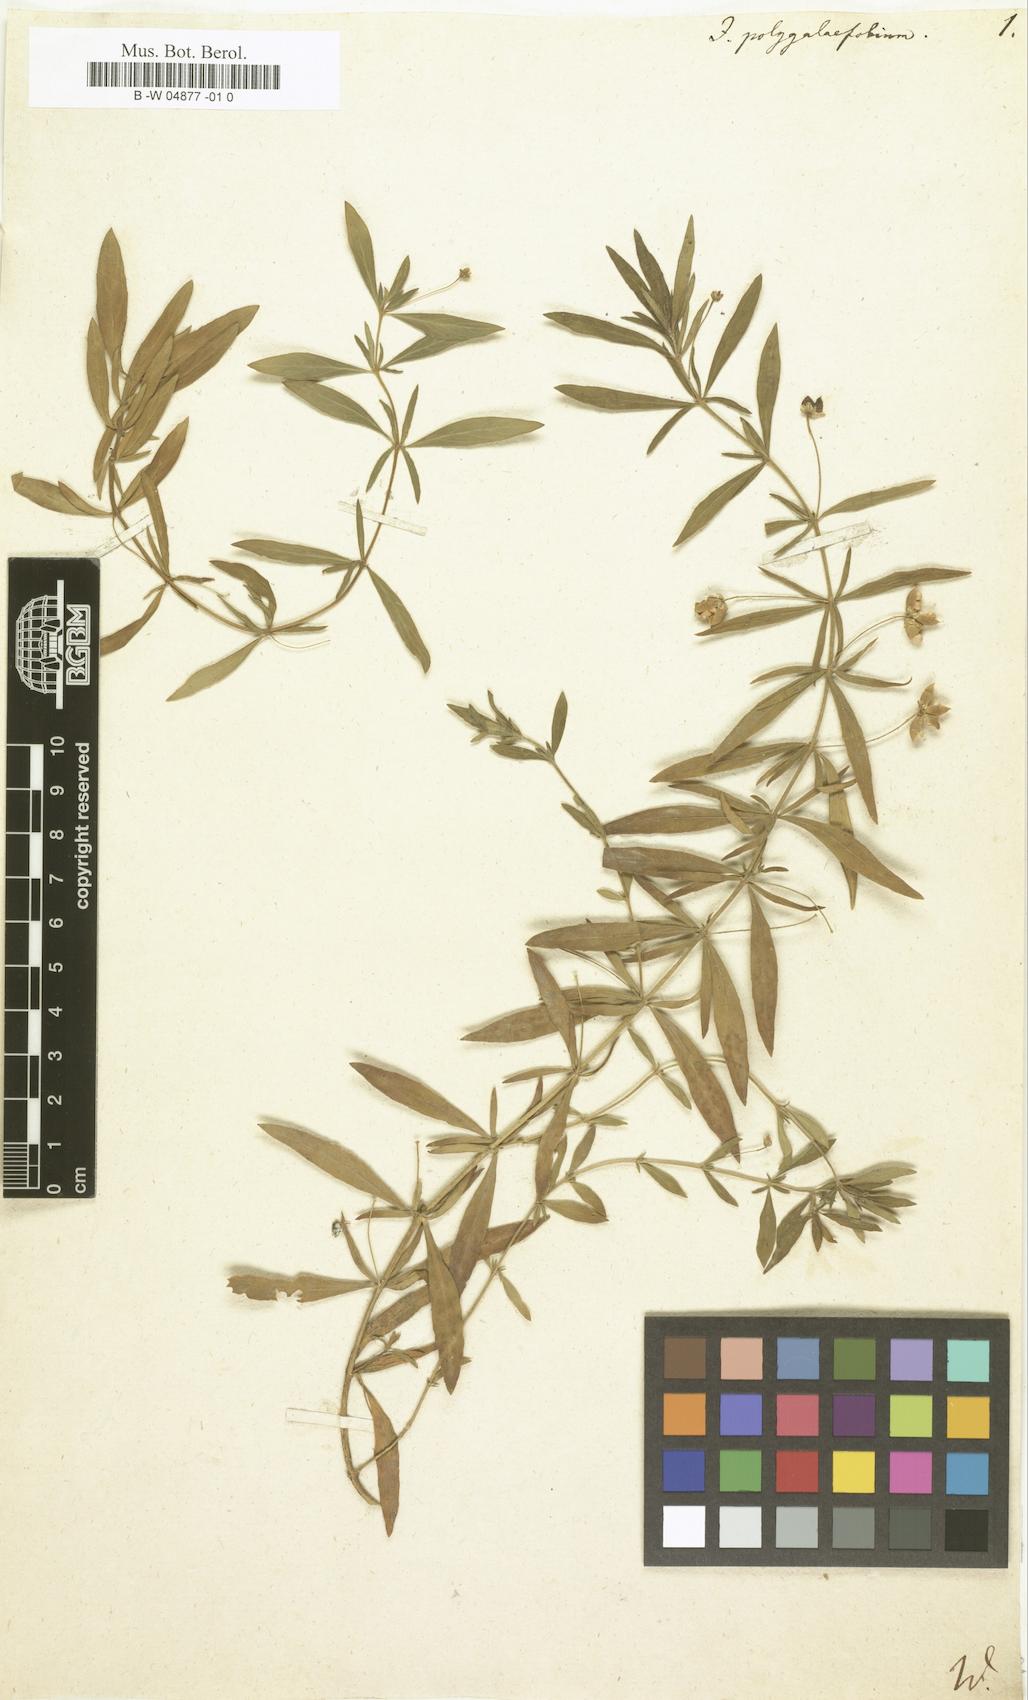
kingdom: Plantae
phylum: Tracheophyta
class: Magnoliopsida
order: Malpighiales
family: Violaceae
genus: Pombalia
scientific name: Pombalia verticillata
